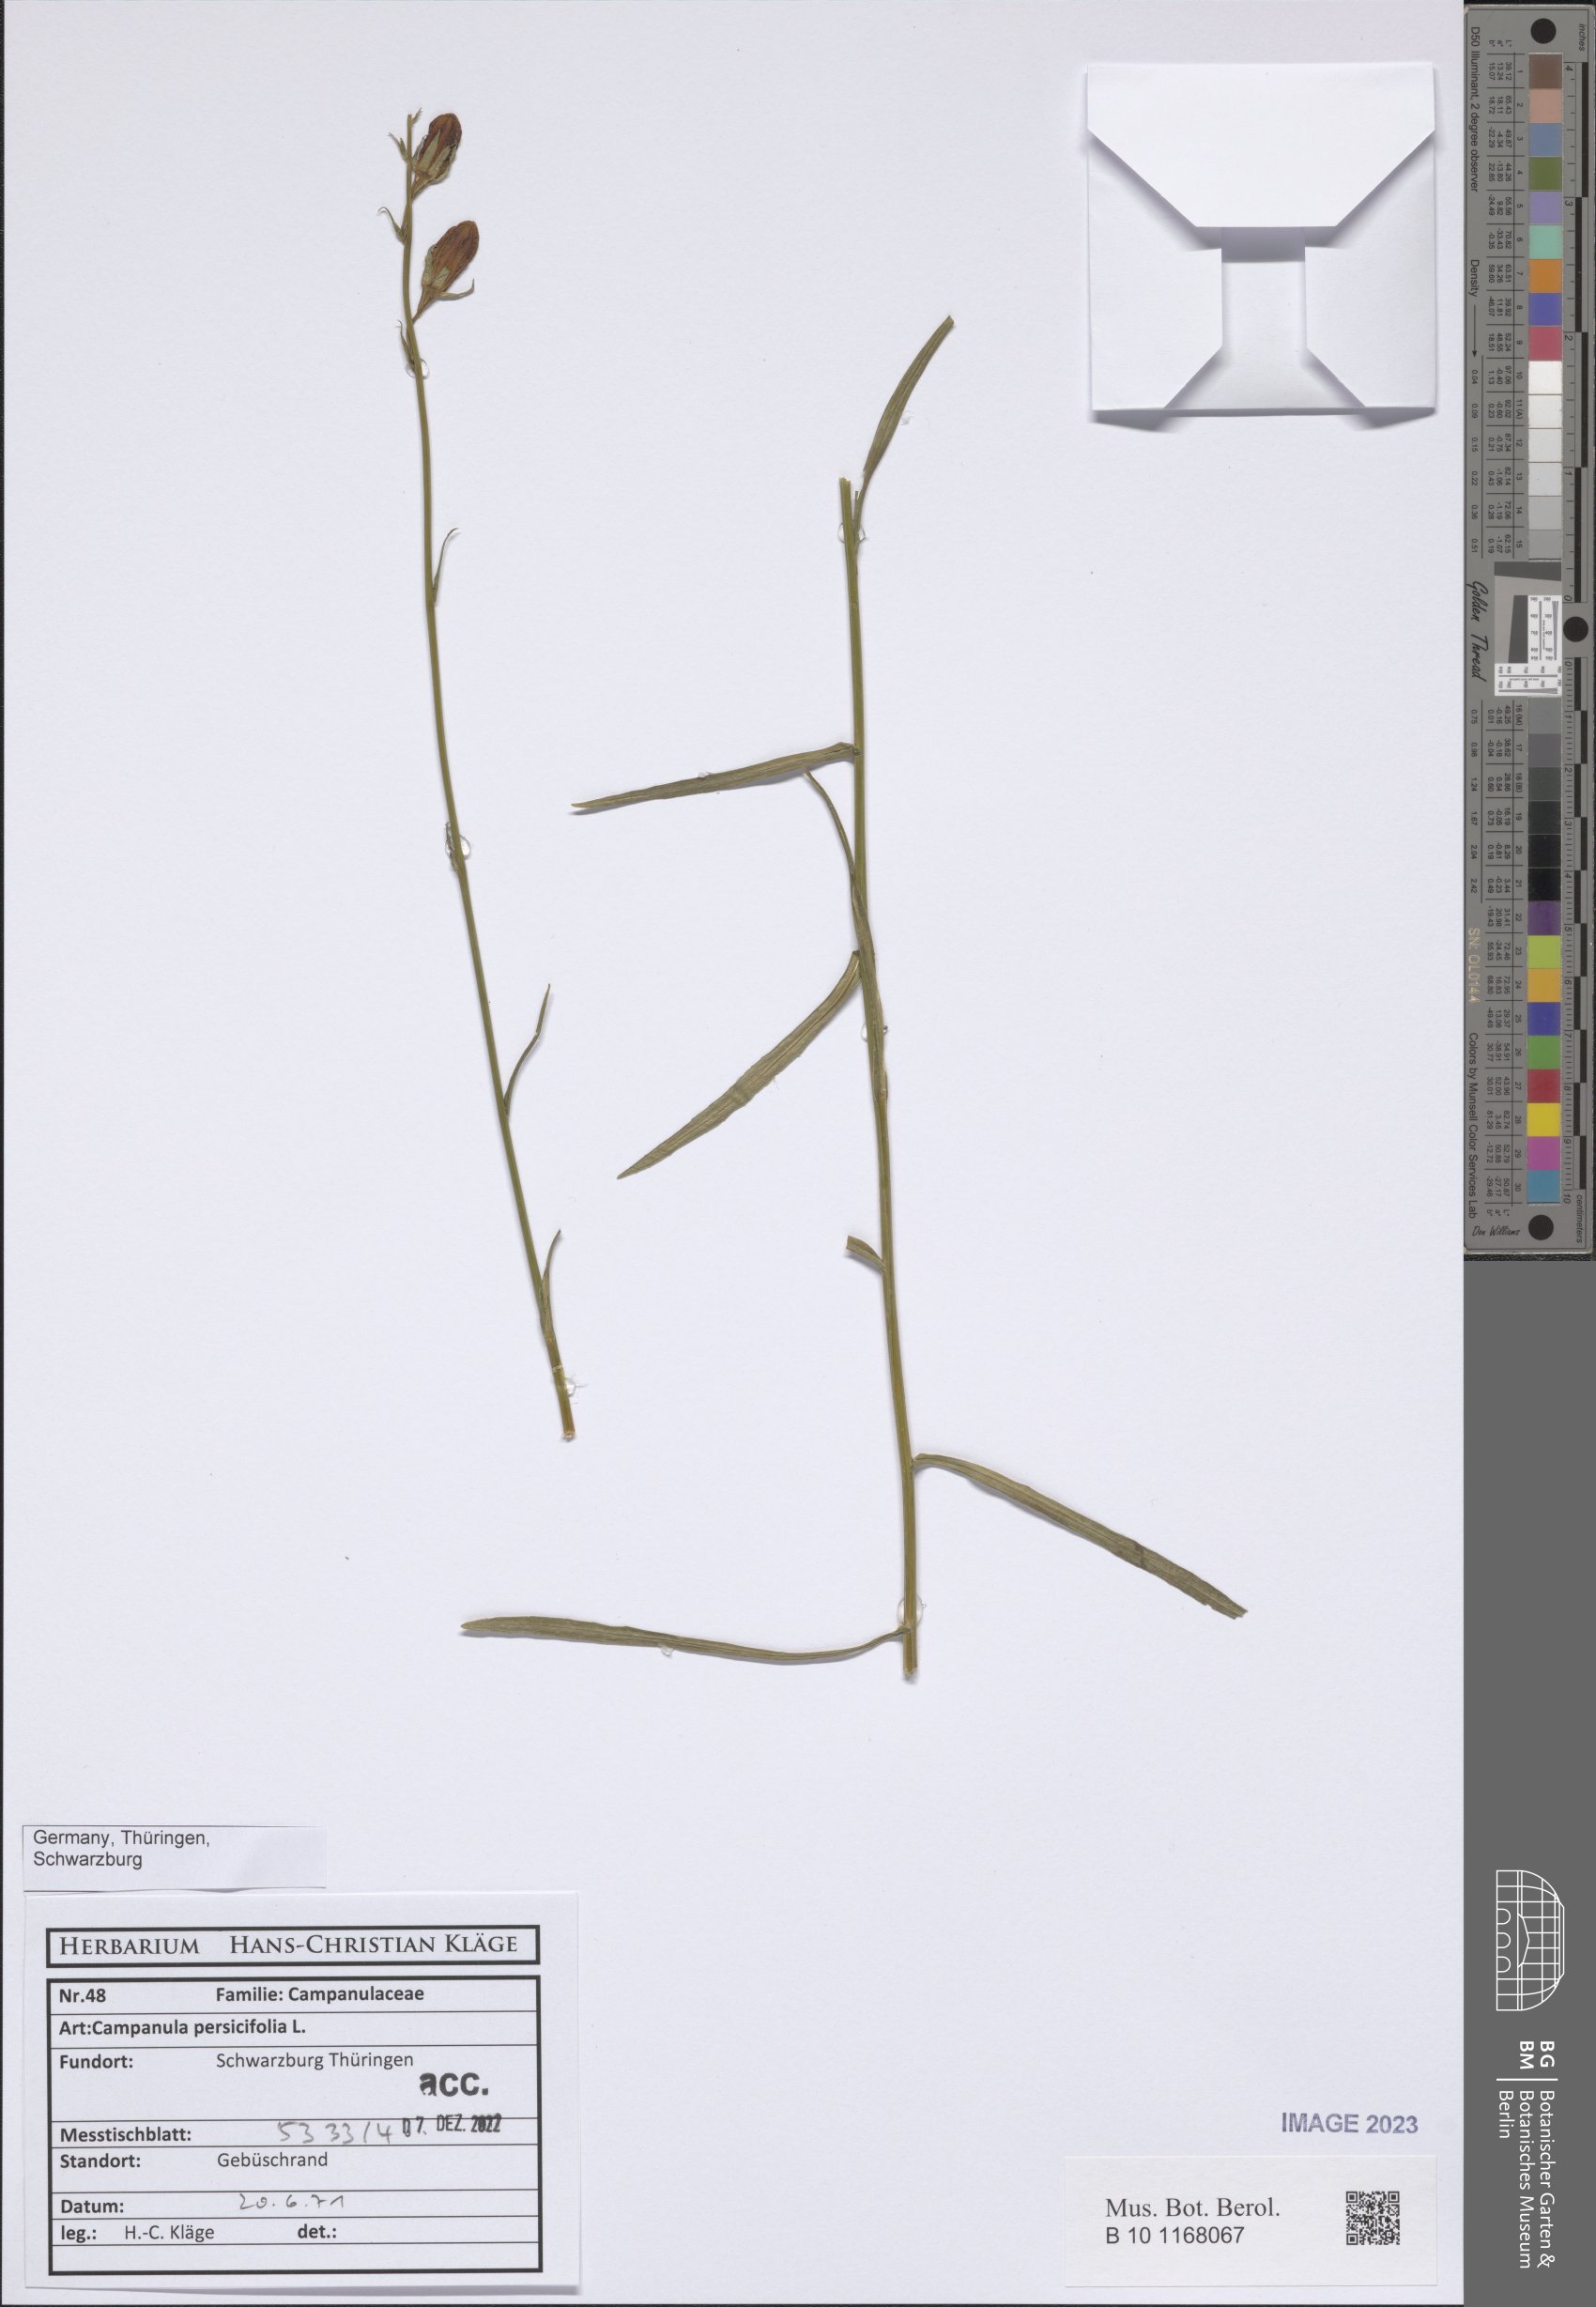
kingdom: Plantae
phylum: Tracheophyta
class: Magnoliopsida
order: Asterales
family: Campanulaceae
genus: Campanula
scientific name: Campanula persicifolia
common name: Peach-leaved bellflower
